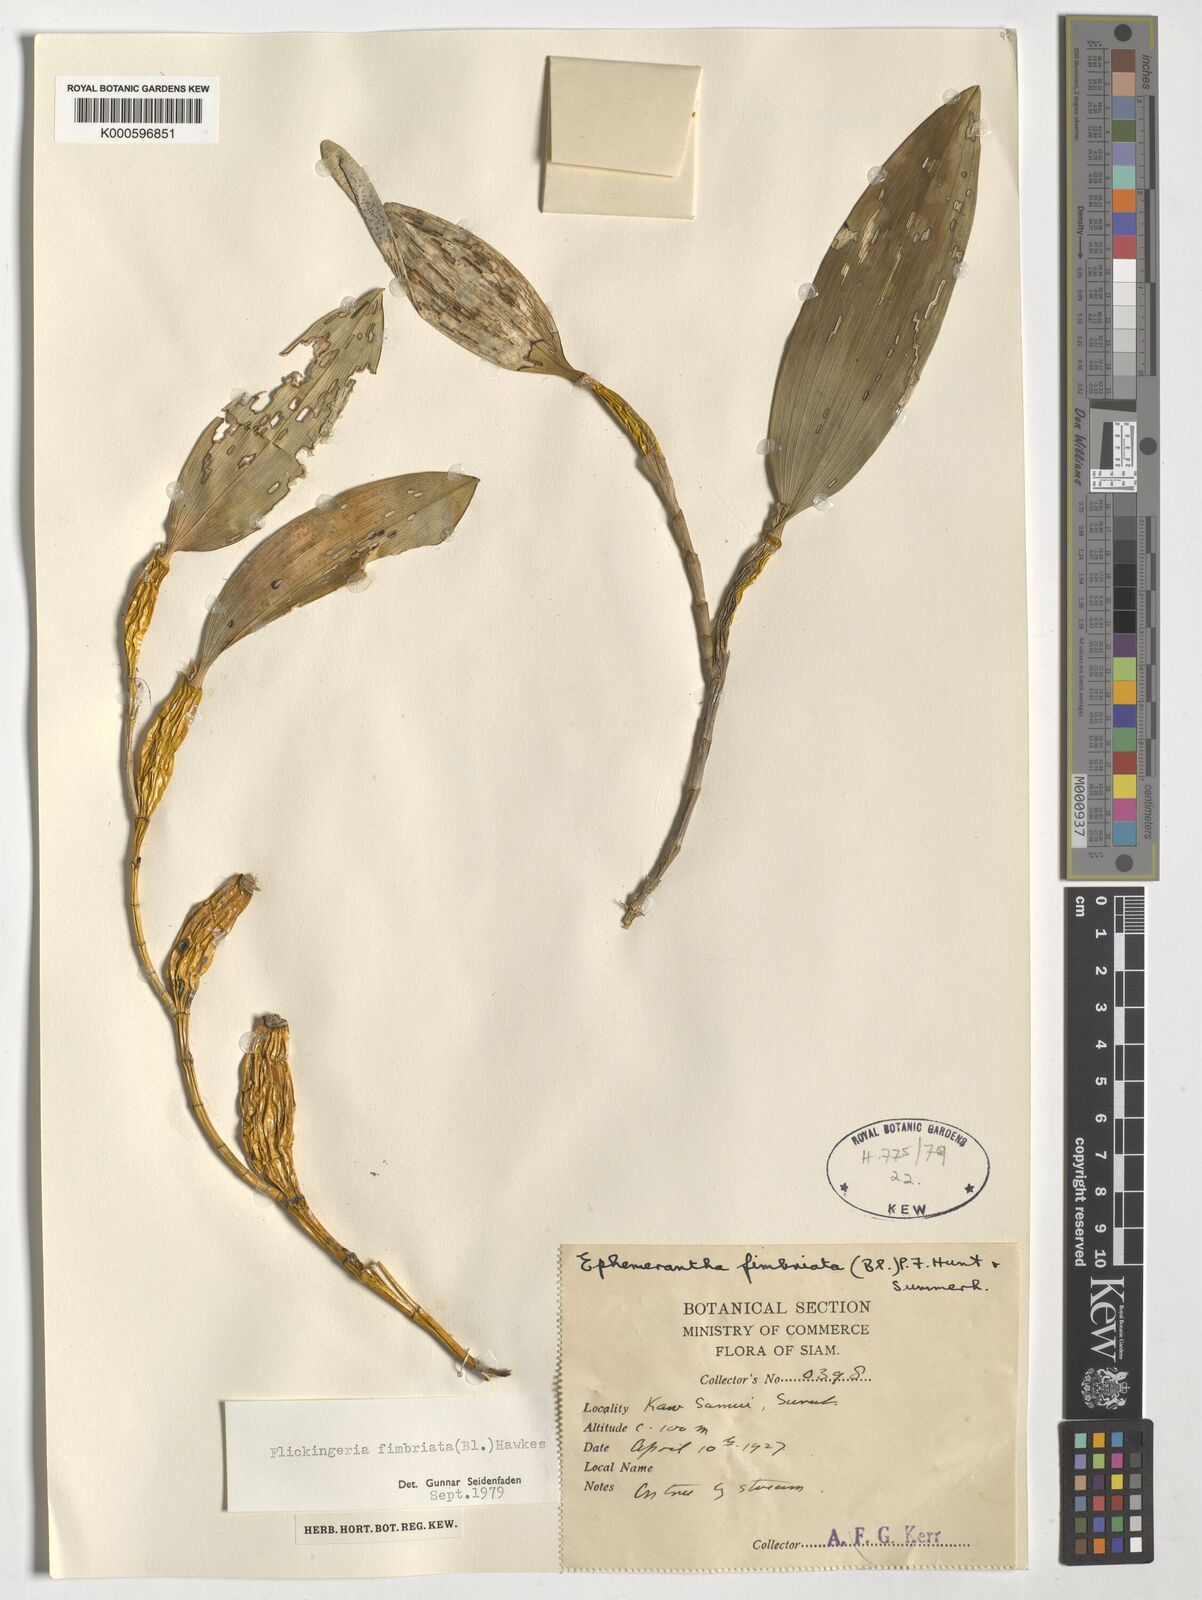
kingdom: Plantae
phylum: Tracheophyta
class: Liliopsida
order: Asparagales
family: Orchidaceae
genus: Dendrobium
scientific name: Dendrobium plicatile
